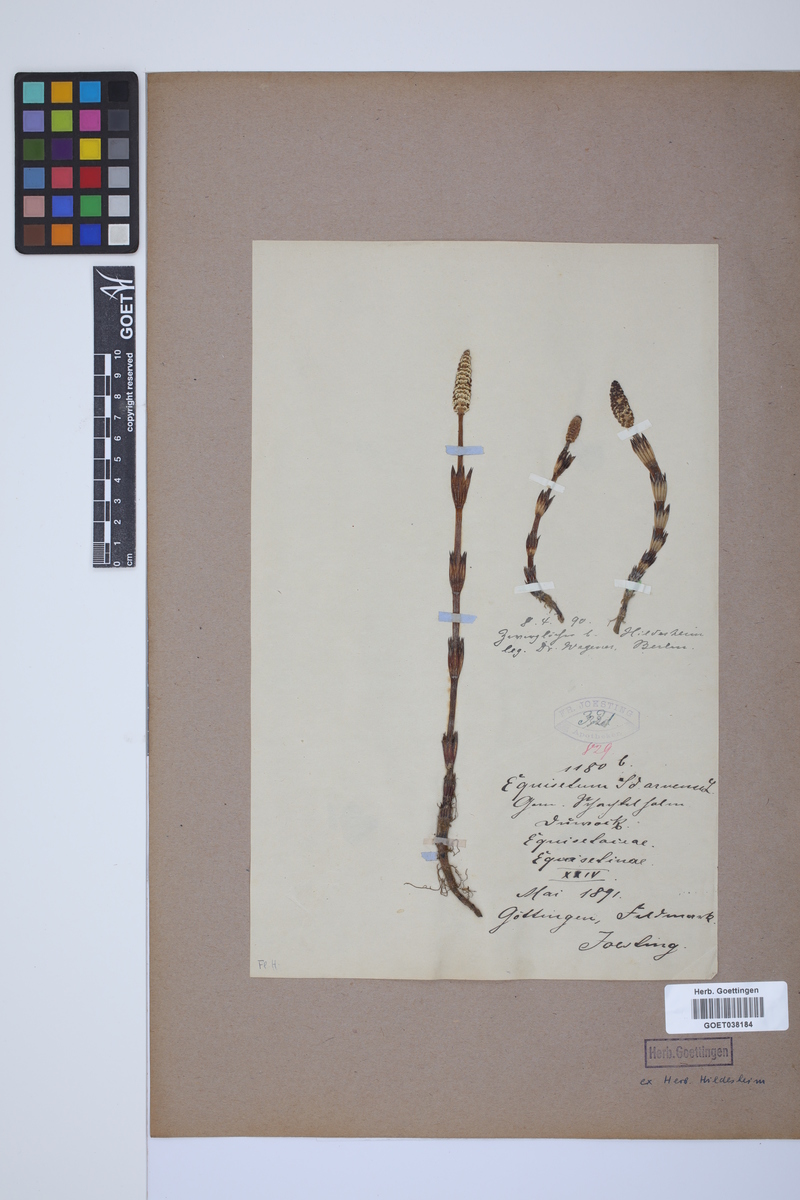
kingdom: Plantae
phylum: Tracheophyta
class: Polypodiopsida
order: Equisetales
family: Equisetaceae
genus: Equisetum
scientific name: Equisetum arvense
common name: Field horsetail
